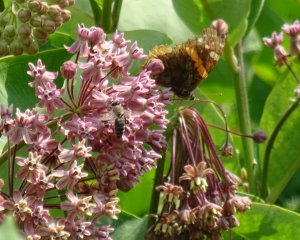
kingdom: Animalia
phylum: Arthropoda
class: Insecta
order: Lepidoptera
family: Nymphalidae
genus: Vanessa
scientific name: Vanessa atalanta
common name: Red Admiral
